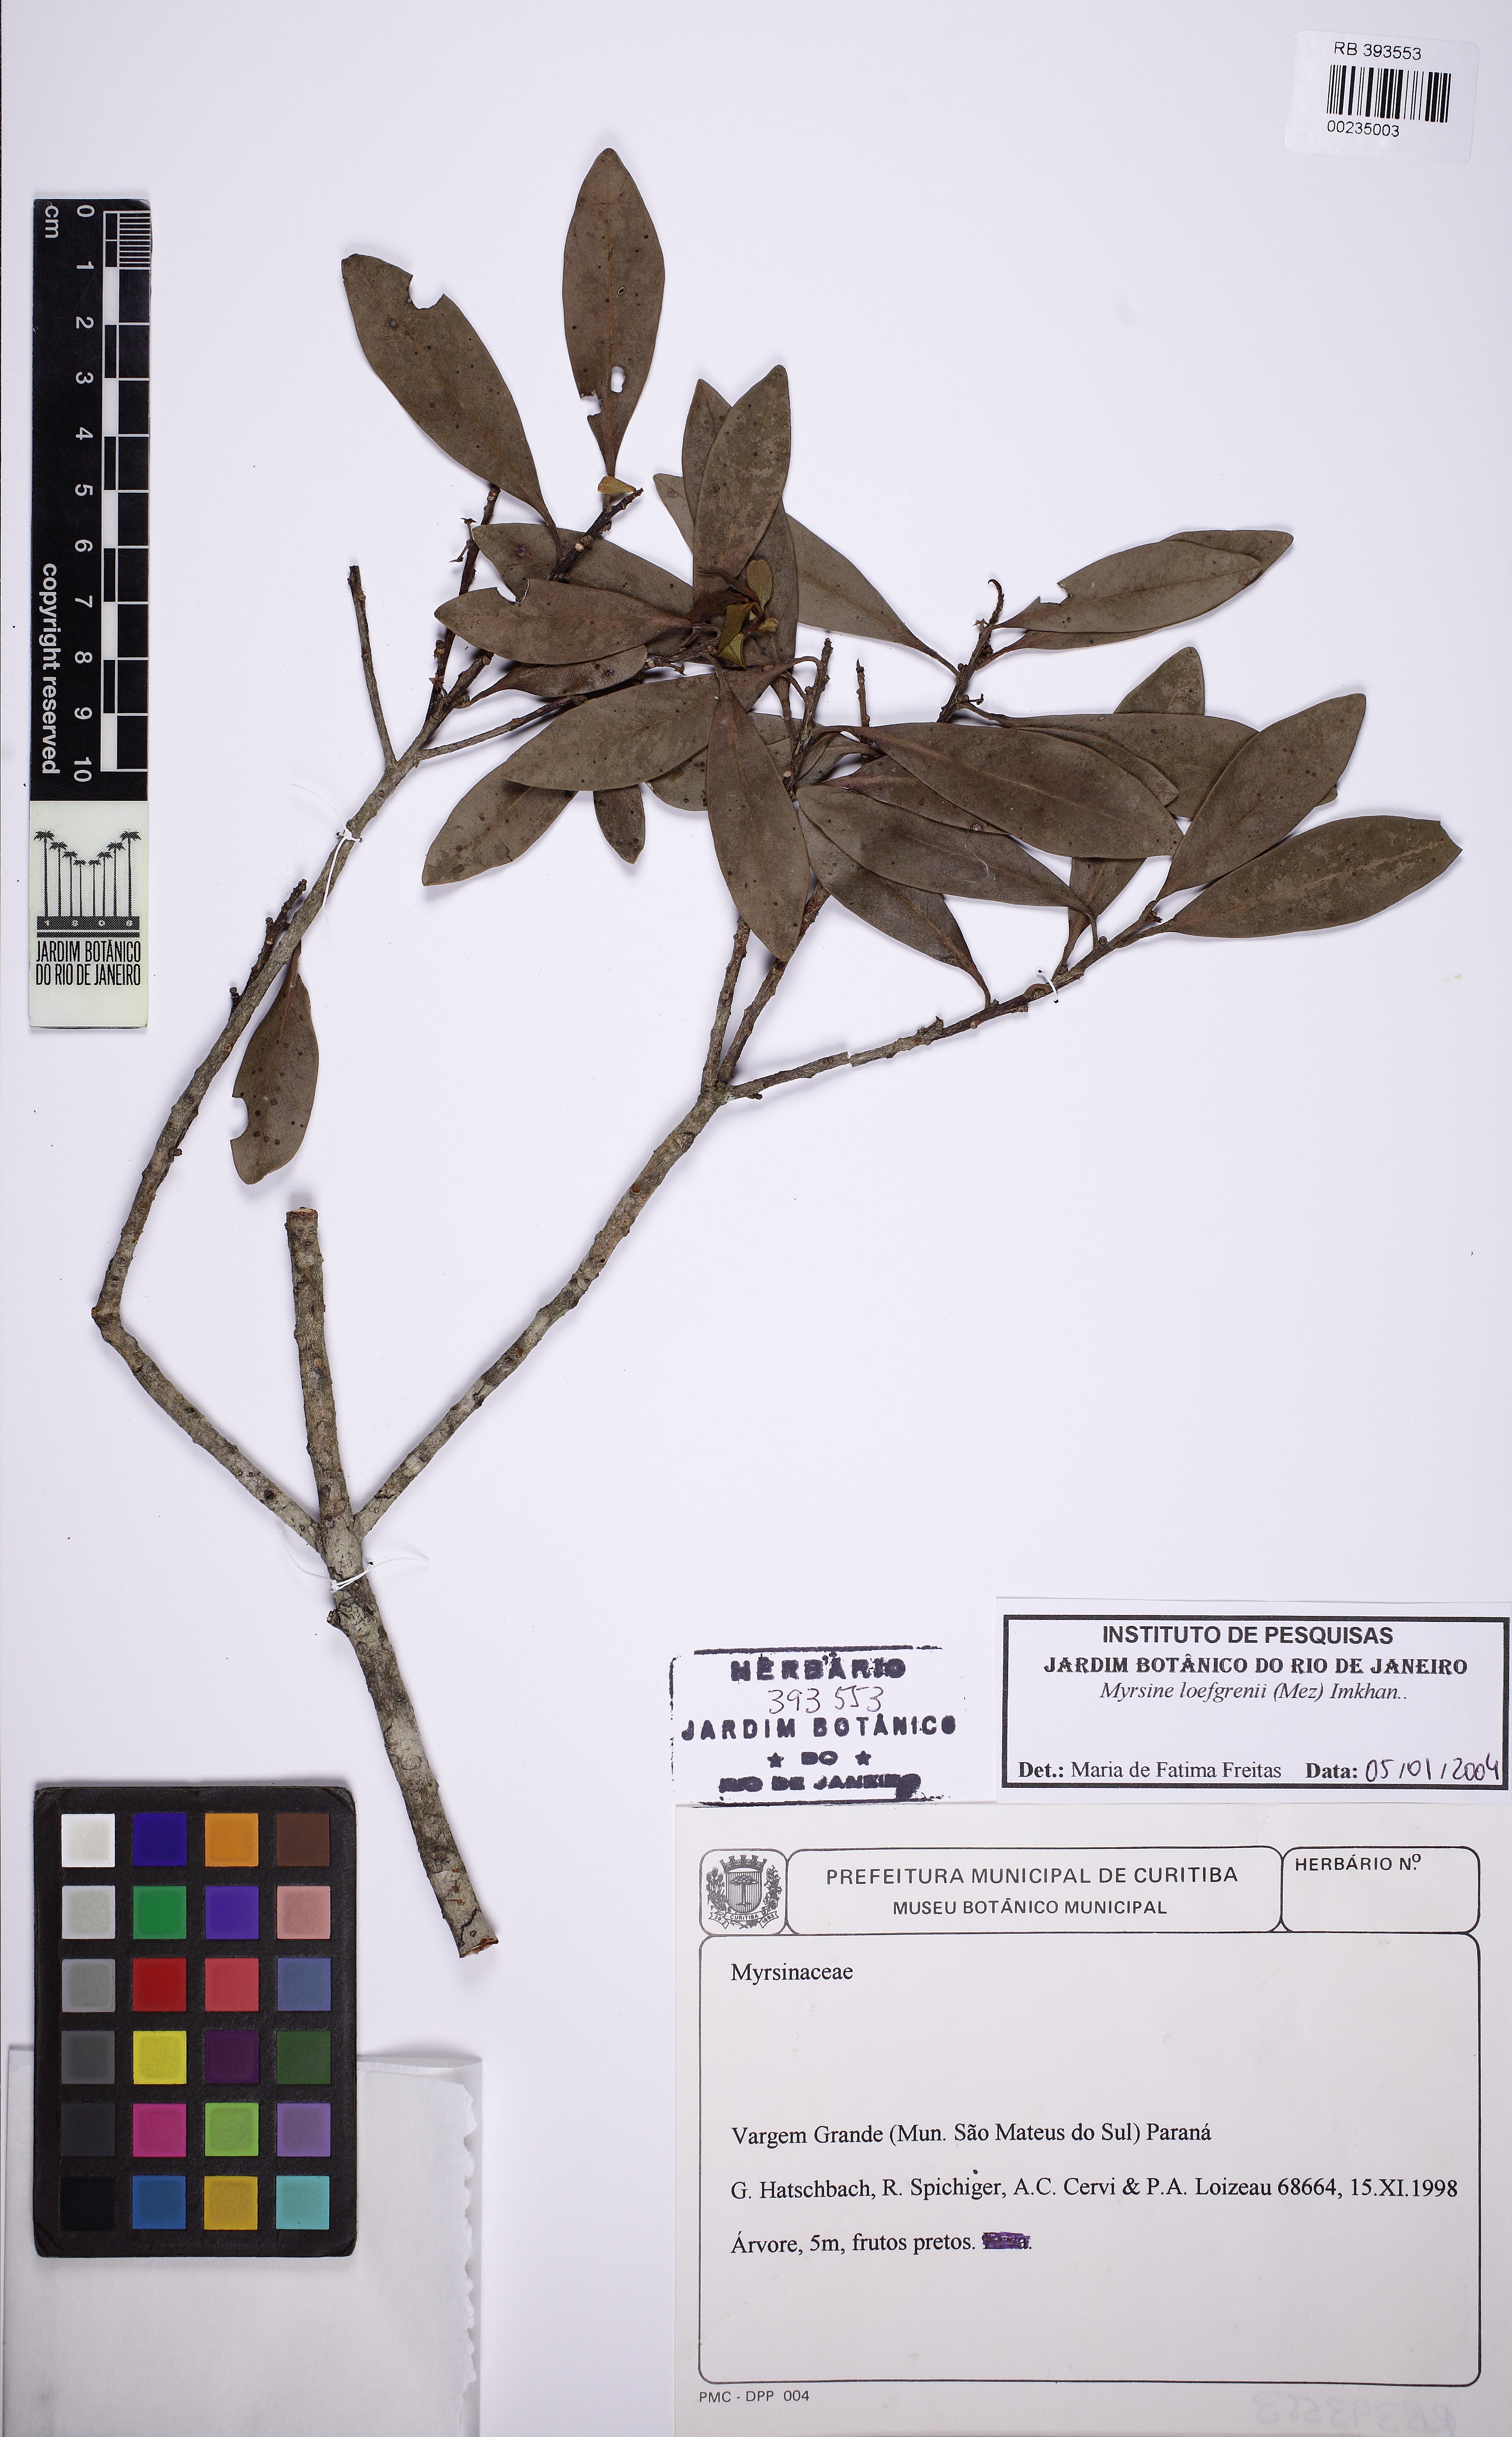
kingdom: Plantae
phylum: Tracheophyta
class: Magnoliopsida
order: Ericales
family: Primulaceae
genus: Myrsine
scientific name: Myrsine loefgrenii
